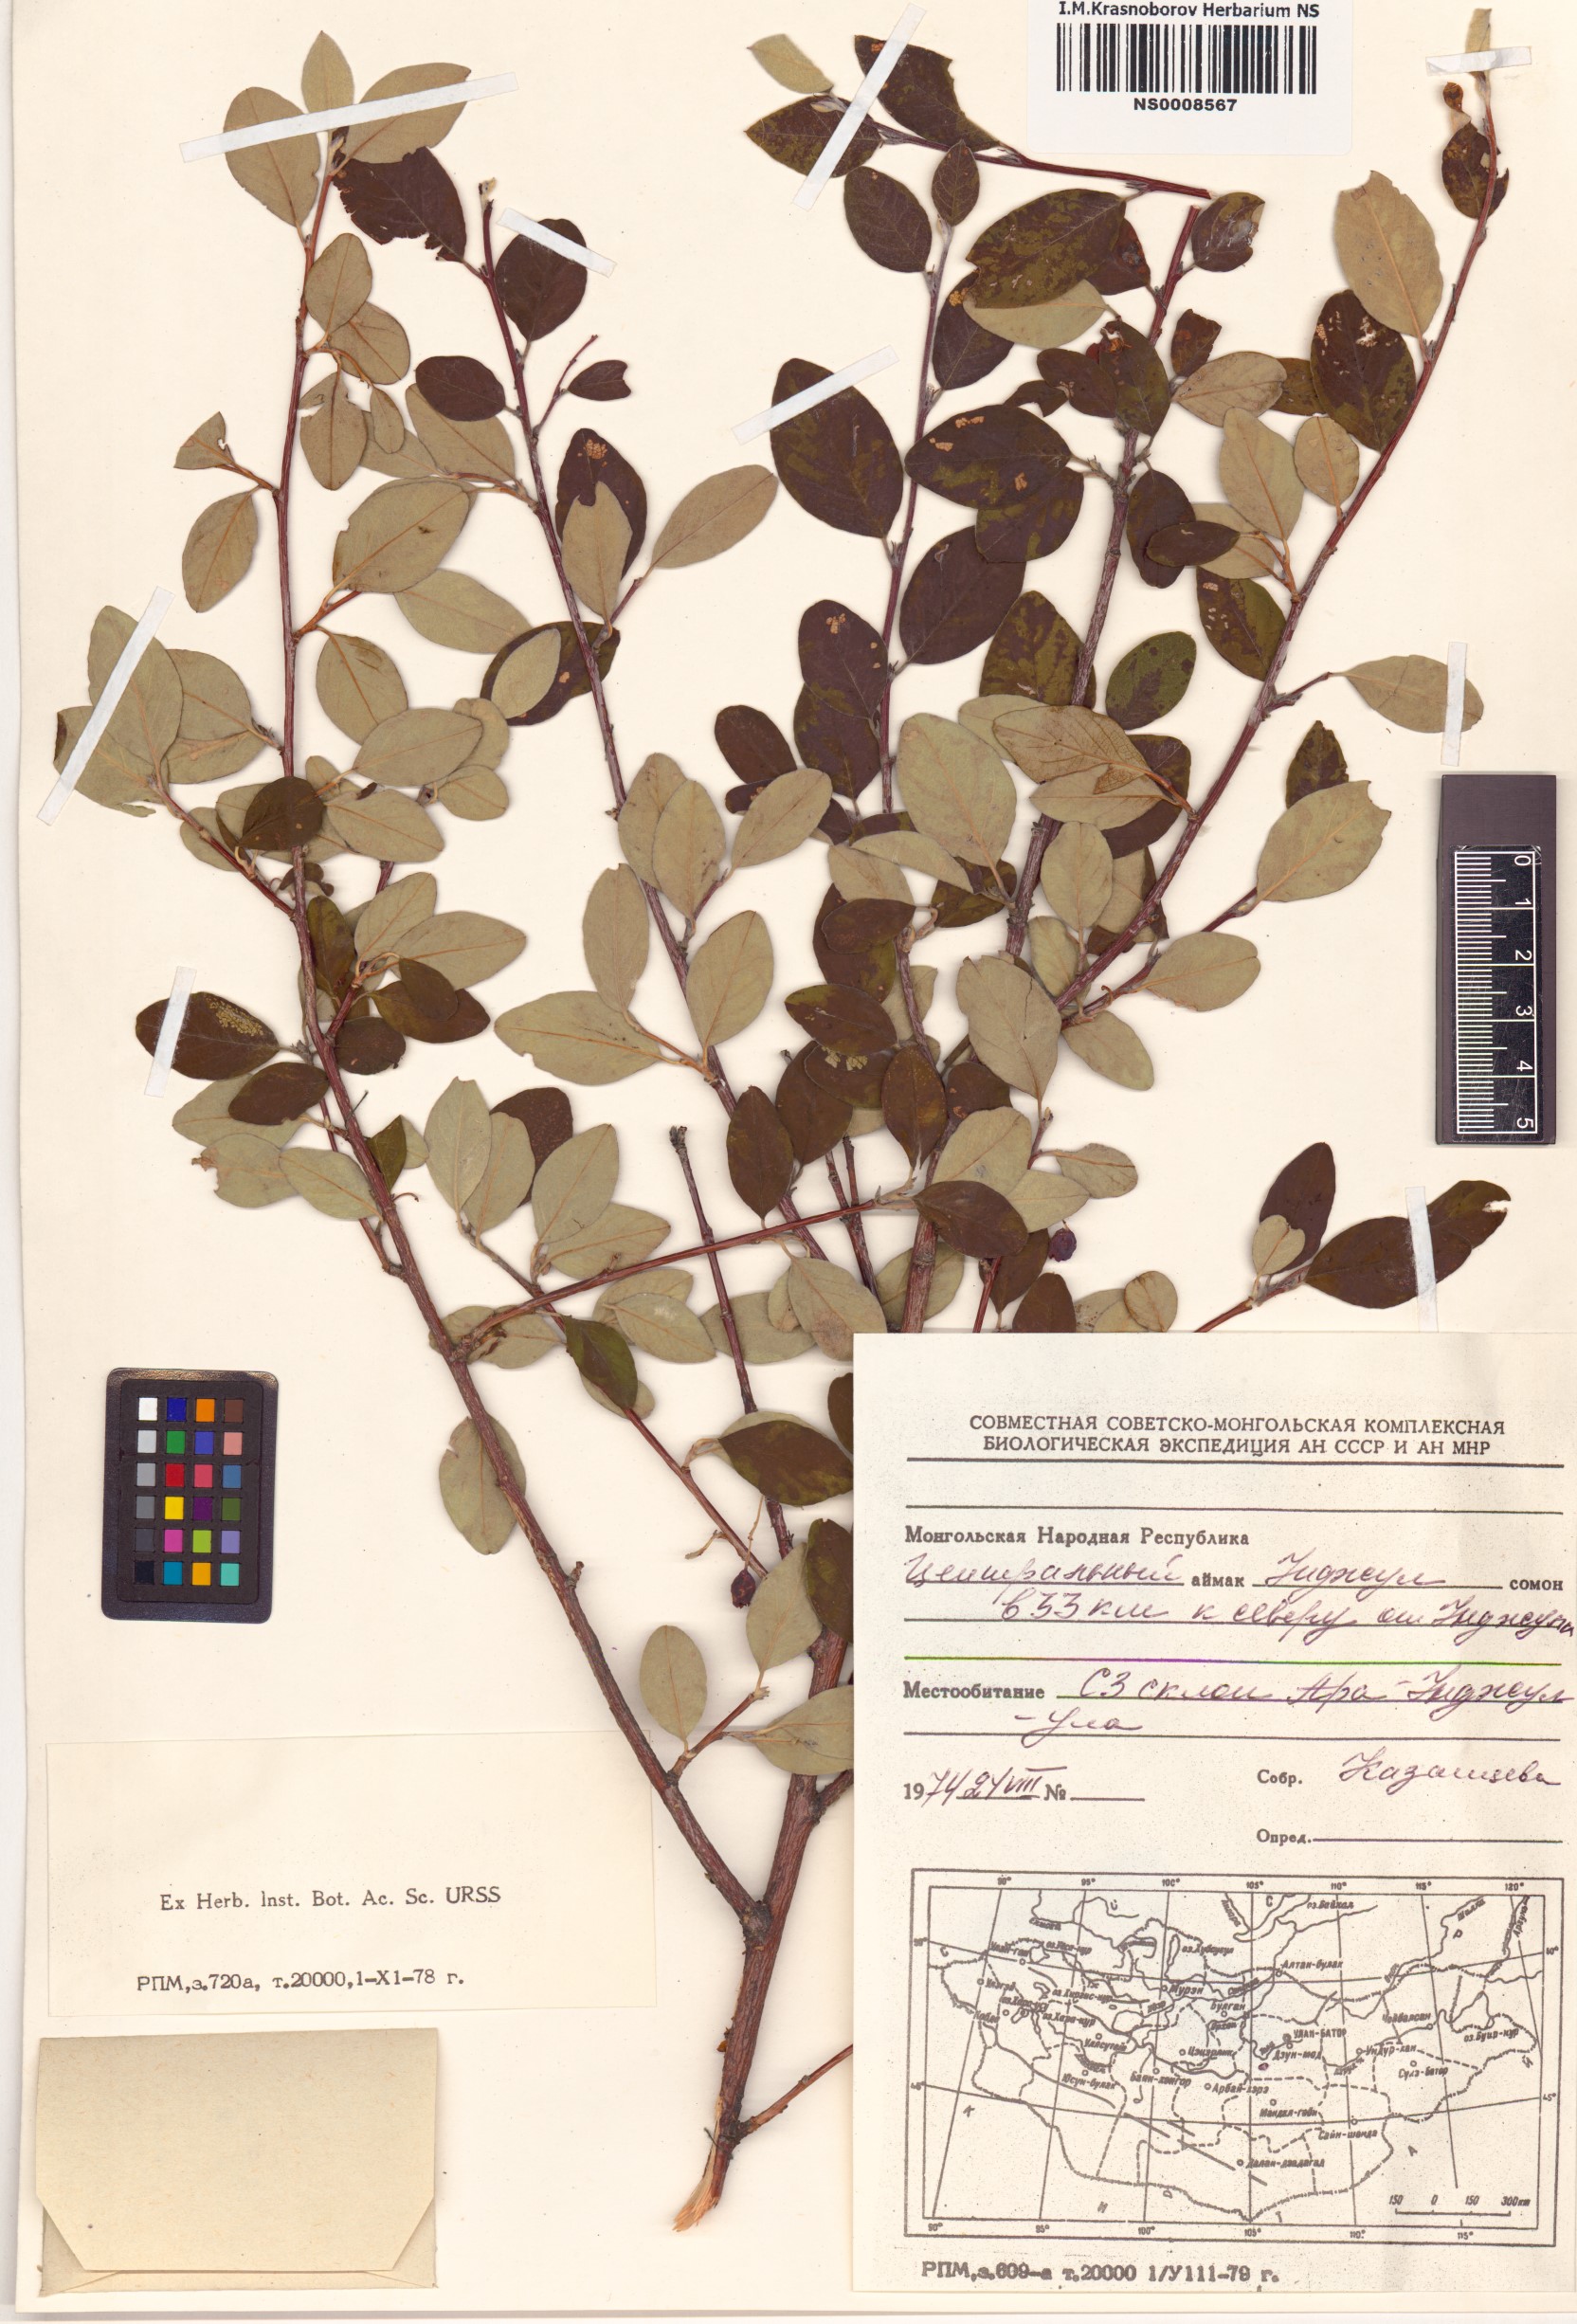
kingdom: Plantae
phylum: Tracheophyta
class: Magnoliopsida
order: Rosales
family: Rosaceae
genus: Cotoneaster
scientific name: Cotoneaster melanocarpus
